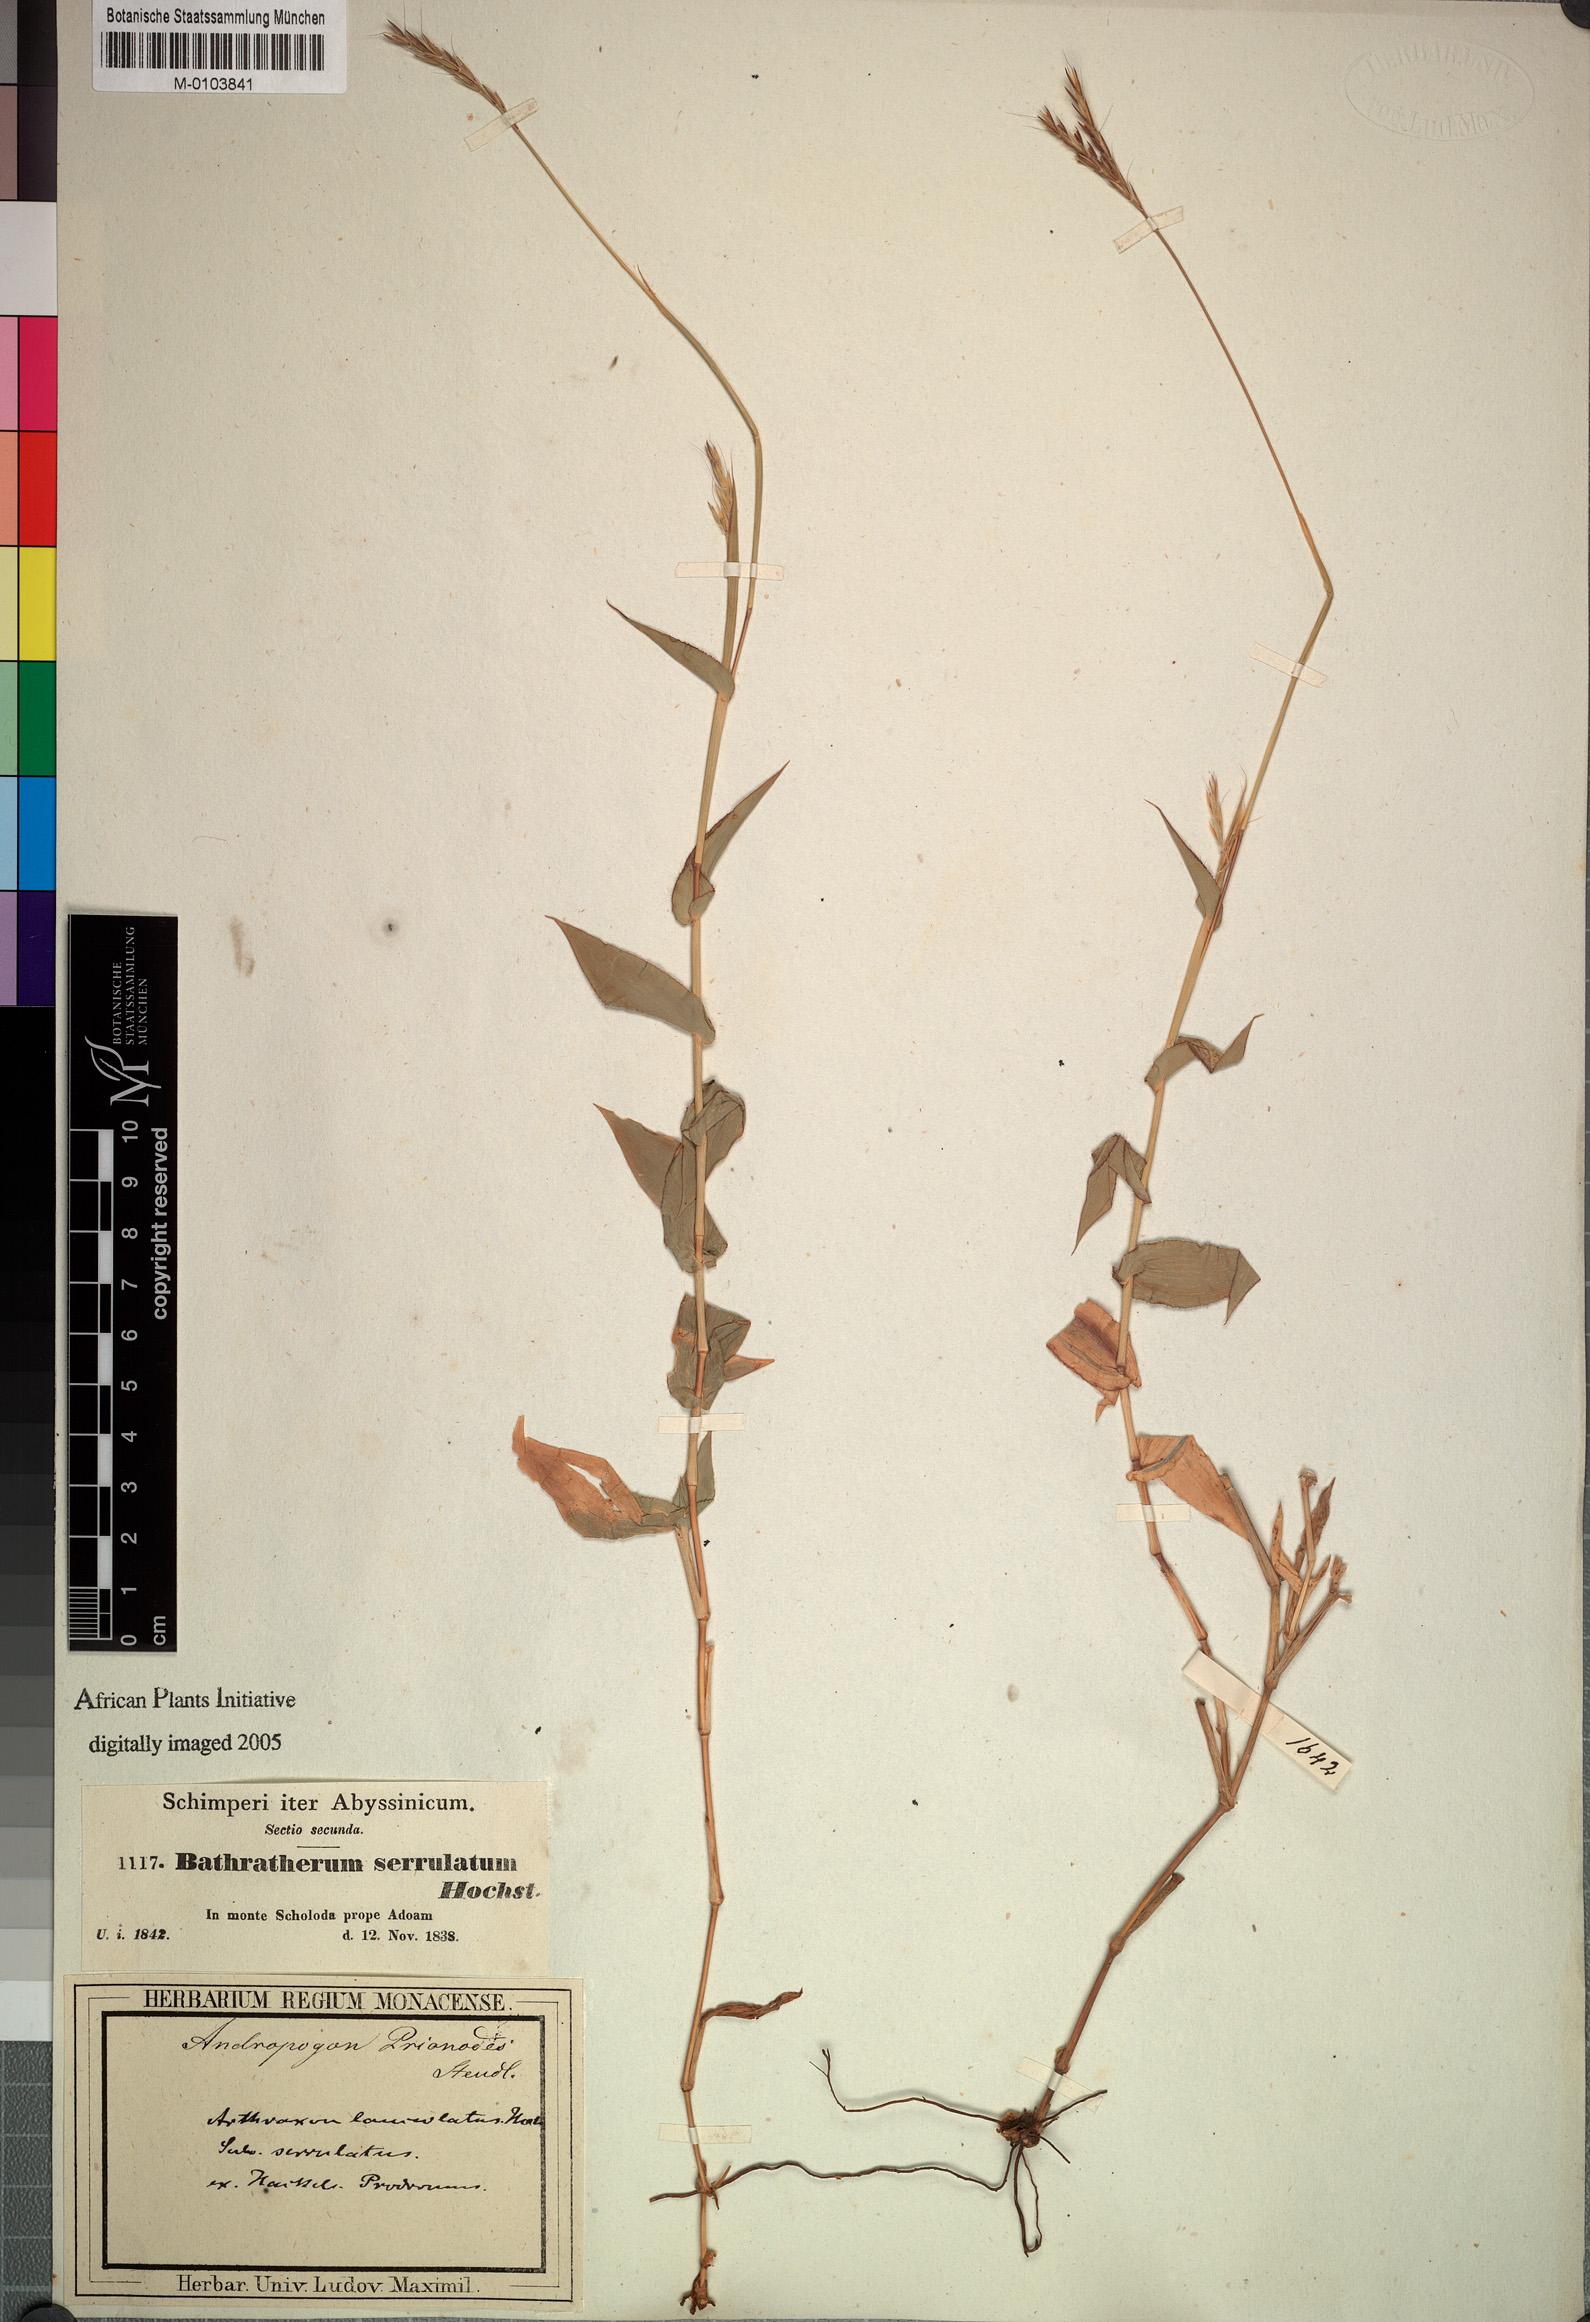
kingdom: Plantae
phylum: Tracheophyta
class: Liliopsida
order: Poales
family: Poaceae
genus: Arthraxon
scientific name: Arthraxon prionodes
